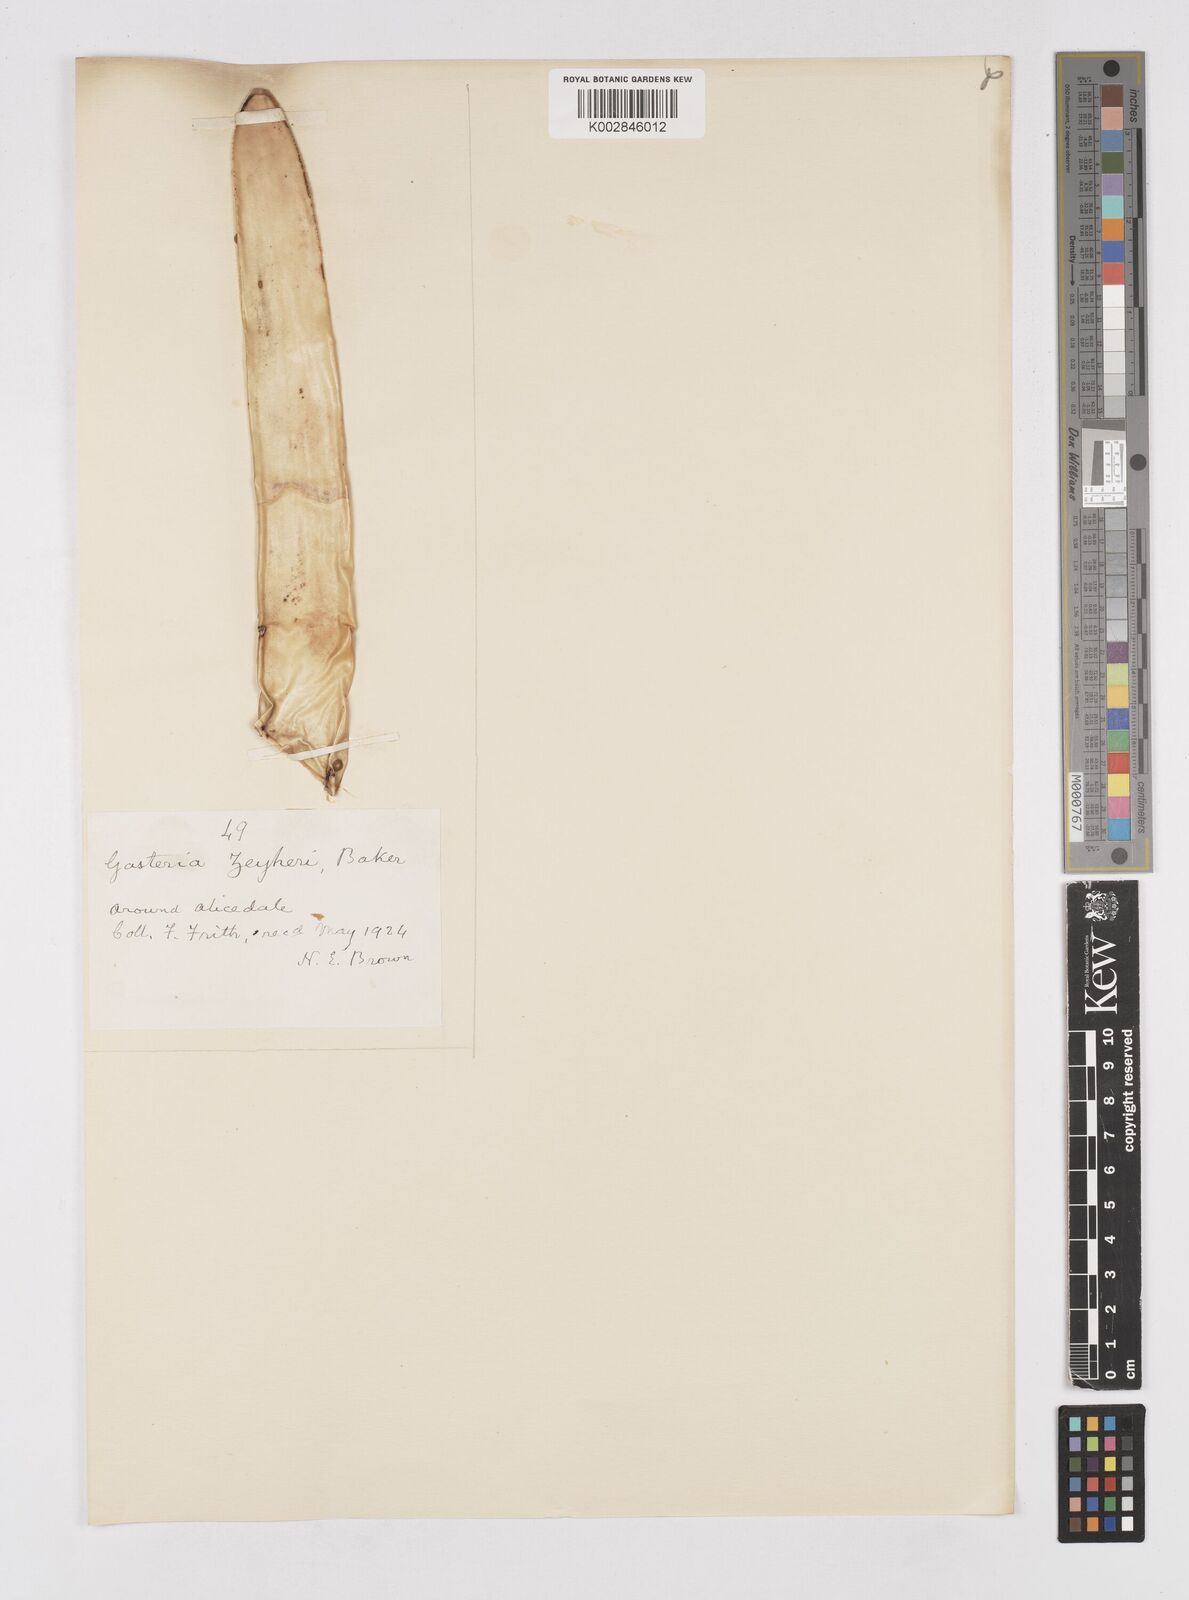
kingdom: Plantae
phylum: Tracheophyta
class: Liliopsida
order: Asparagales
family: Asphodelaceae
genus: Gasteria
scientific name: Gasteria obliqua
